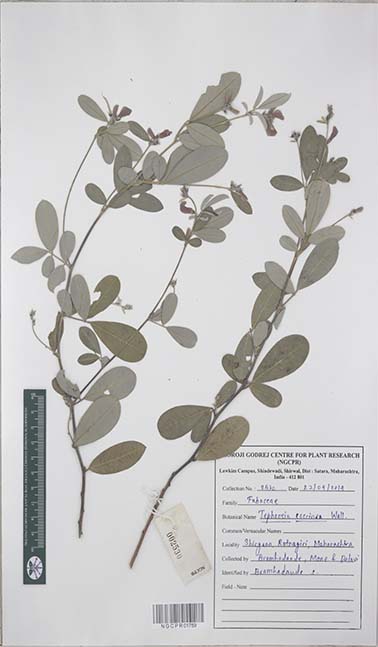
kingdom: Plantae
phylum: Tracheophyta
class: Magnoliopsida
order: Fabales
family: Fabaceae
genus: Tephrosia
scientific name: Tephrosia coccinea
